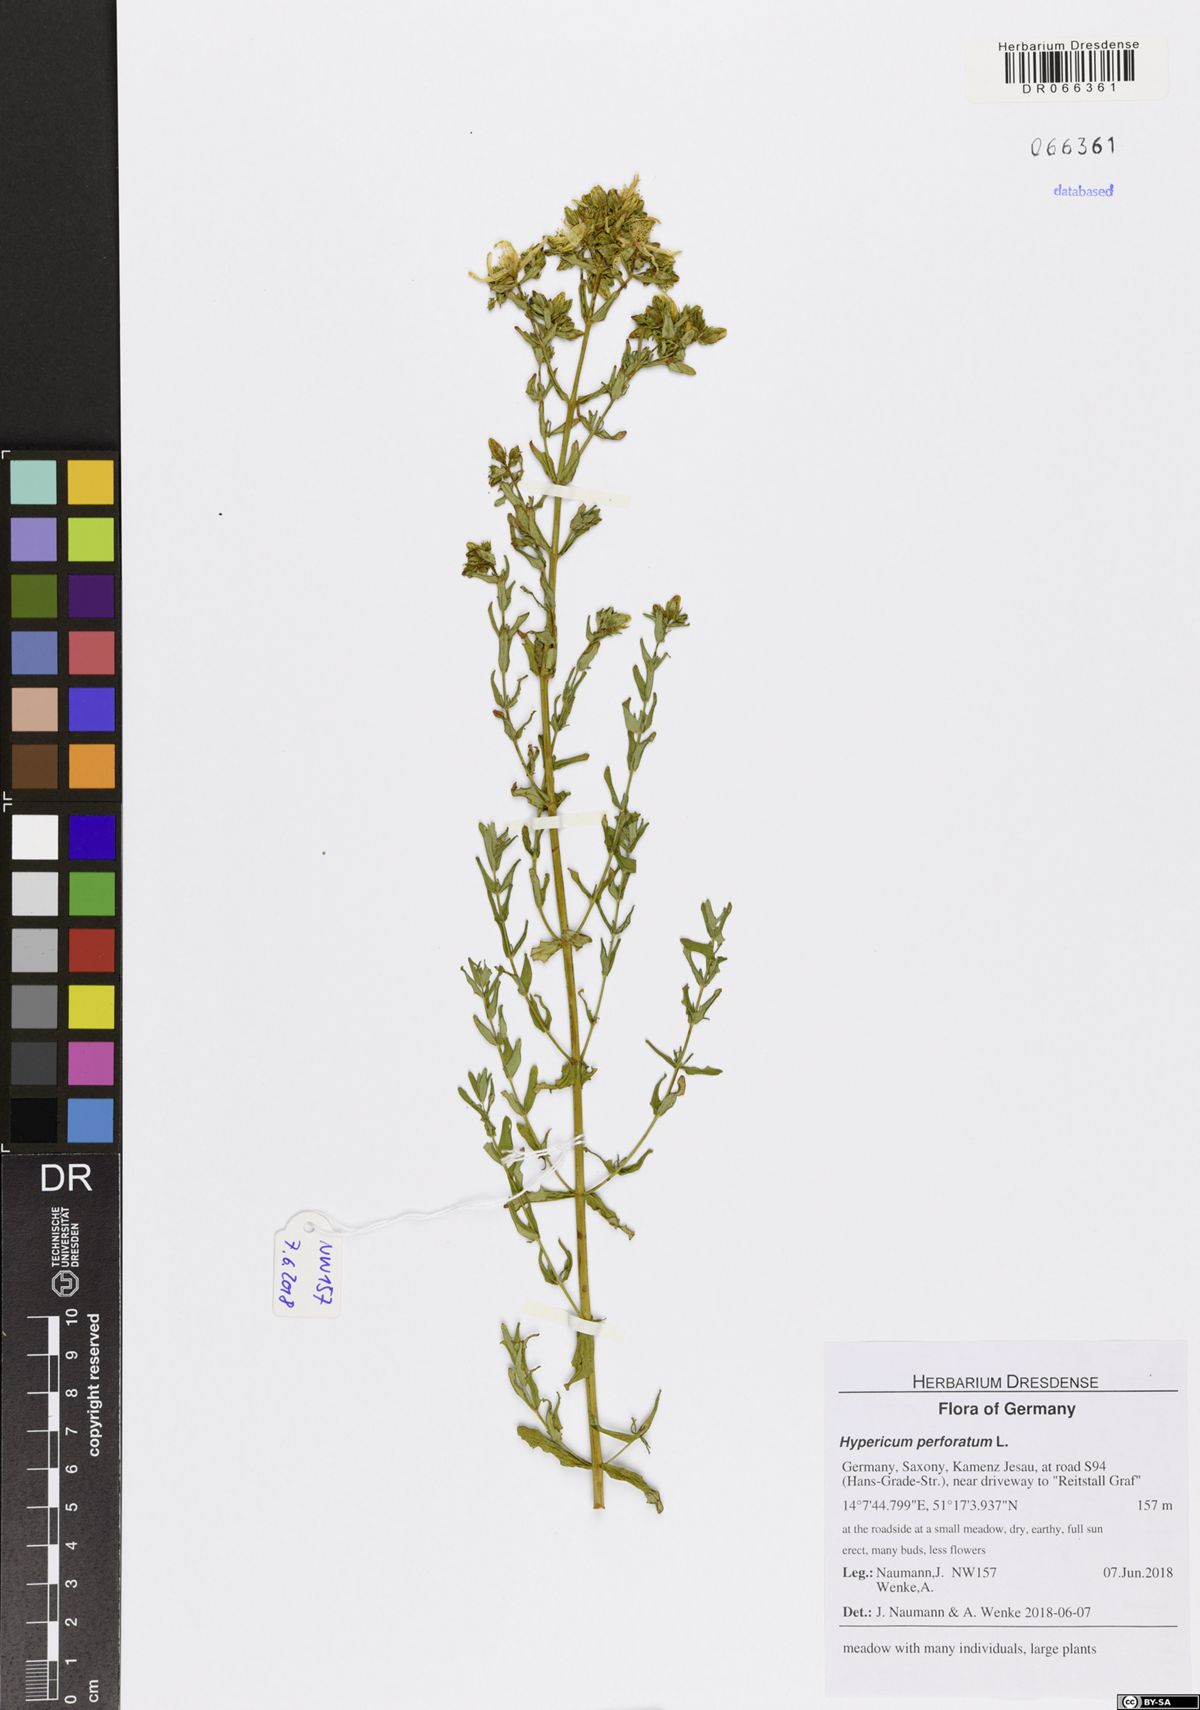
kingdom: Plantae
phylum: Tracheophyta
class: Magnoliopsida
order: Malpighiales
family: Hypericaceae
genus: Hypericum
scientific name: Hypericum perforatum
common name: Common st. johnswort
